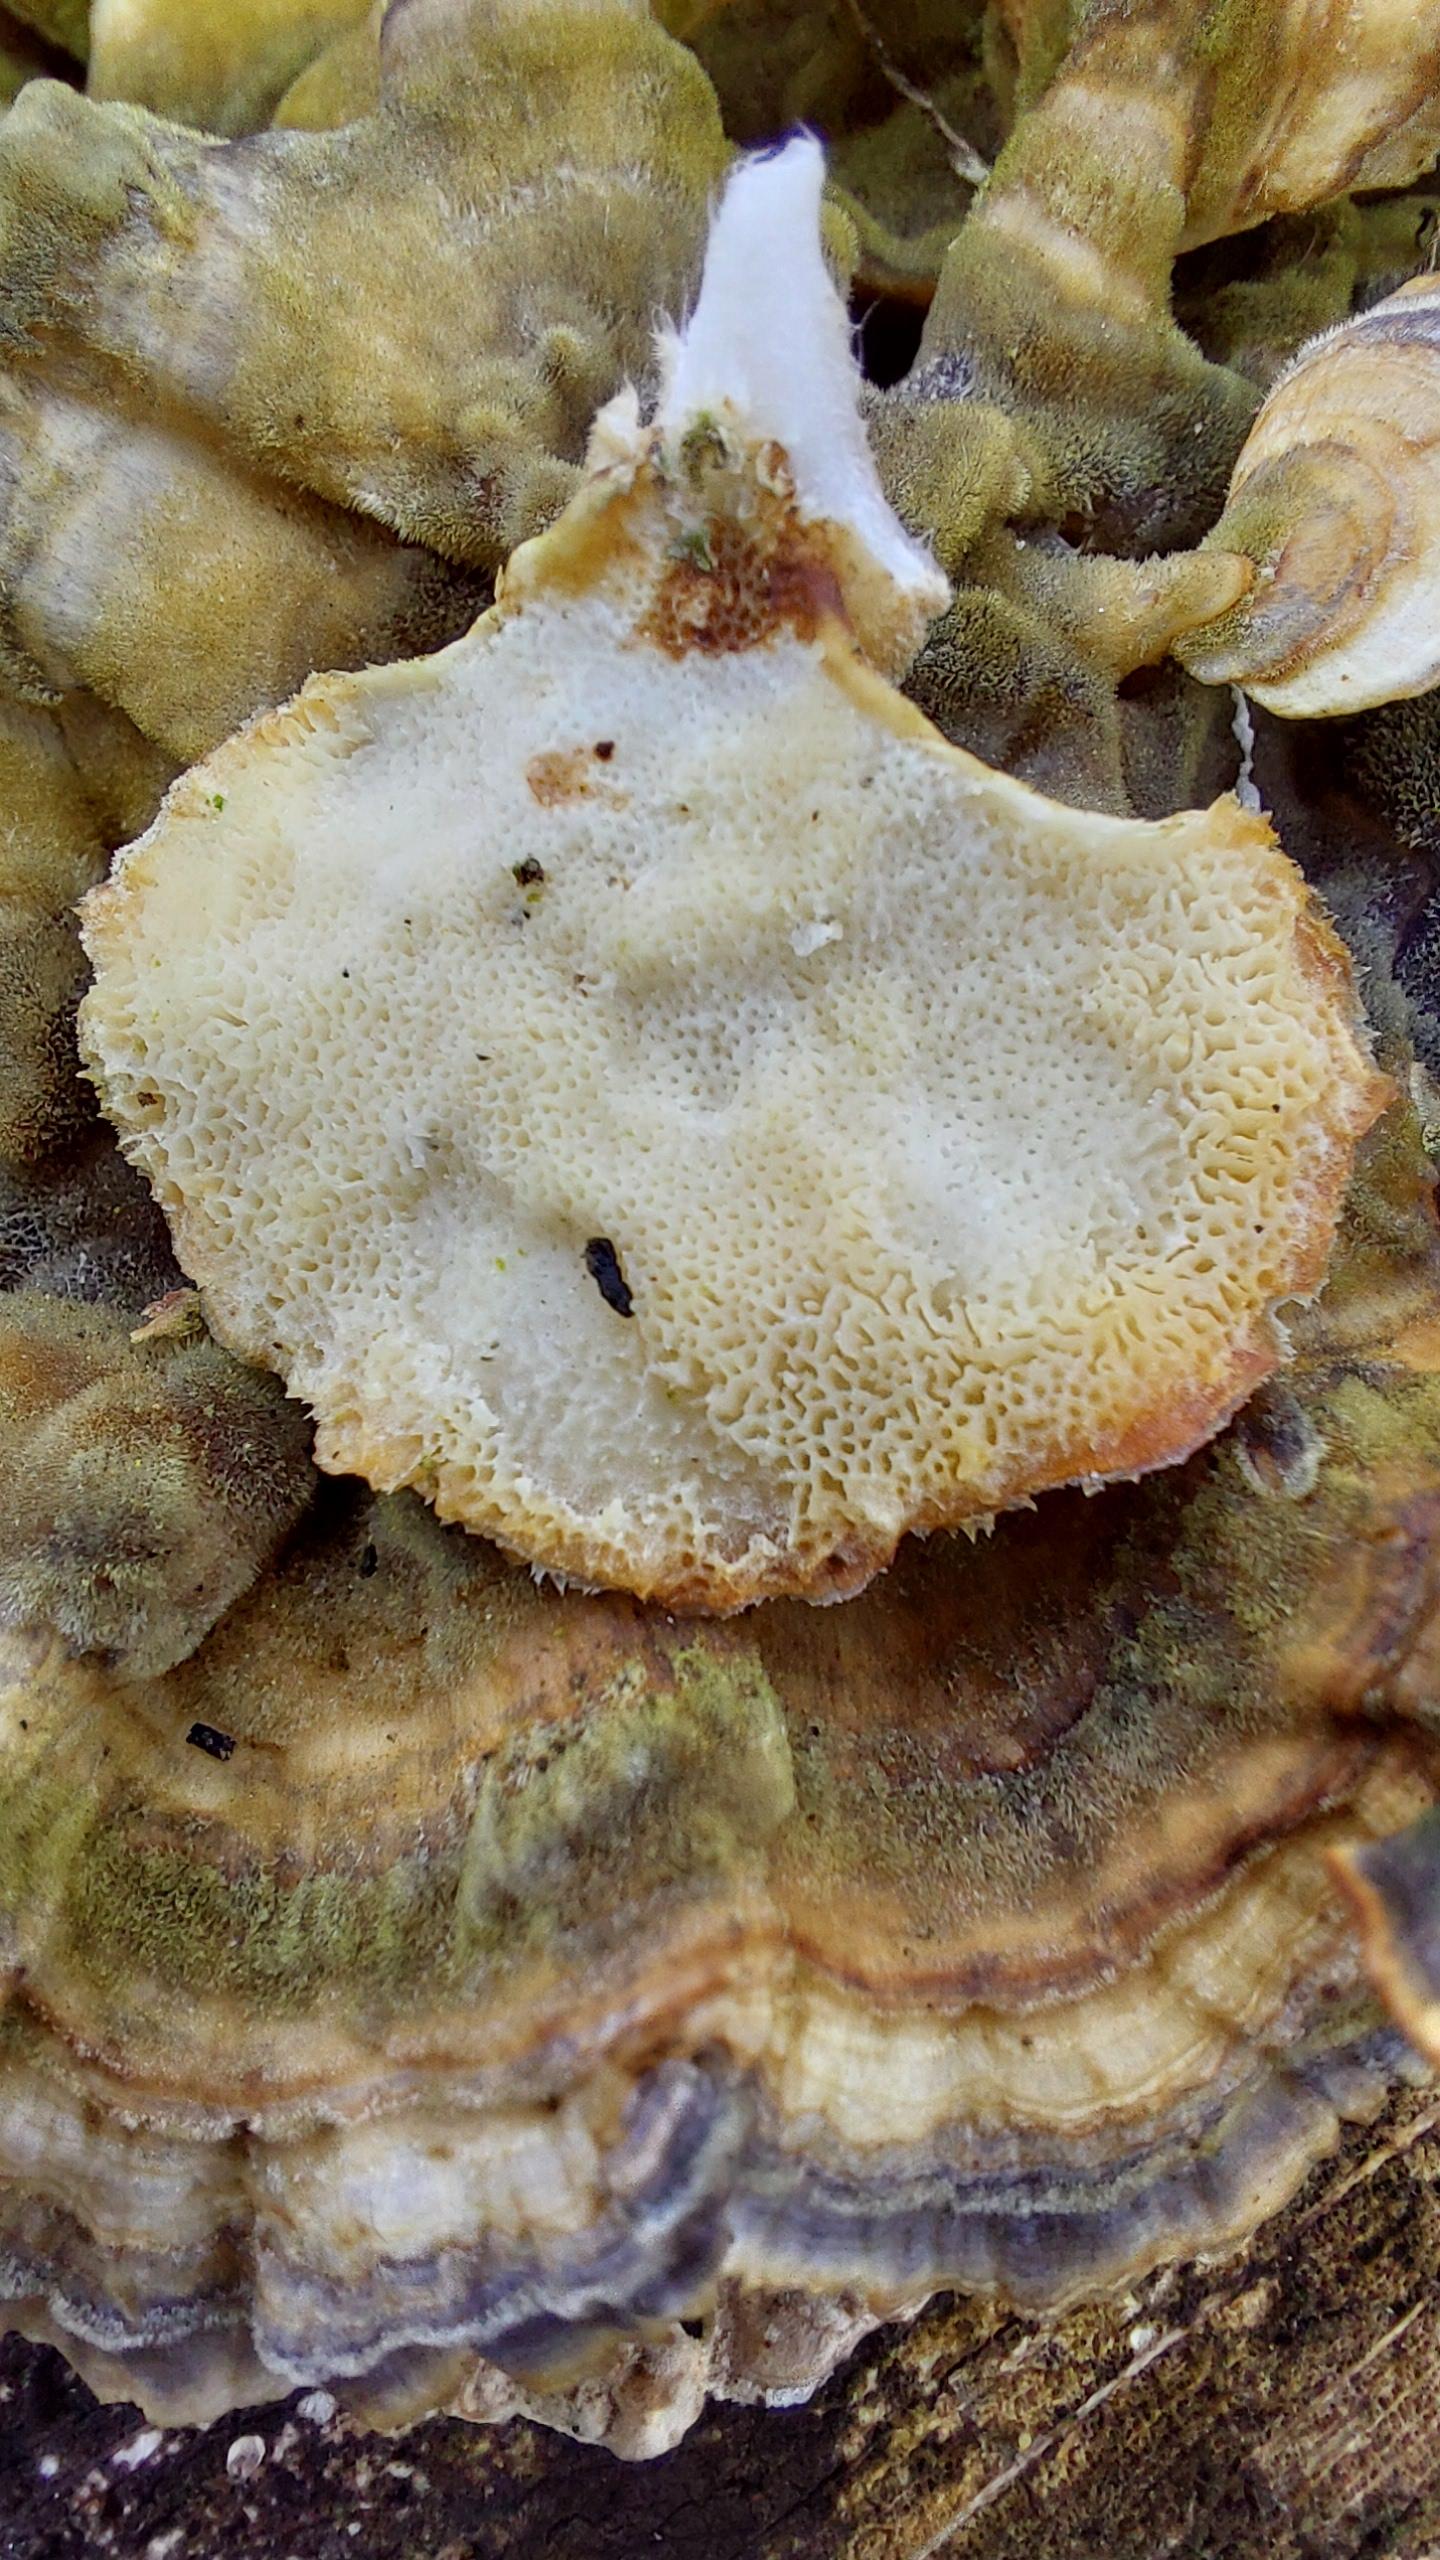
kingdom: Fungi
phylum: Basidiomycota
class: Agaricomycetes
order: Polyporales
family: Polyporaceae
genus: Trametes
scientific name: Trametes versicolor
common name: broget læderporesvamp
